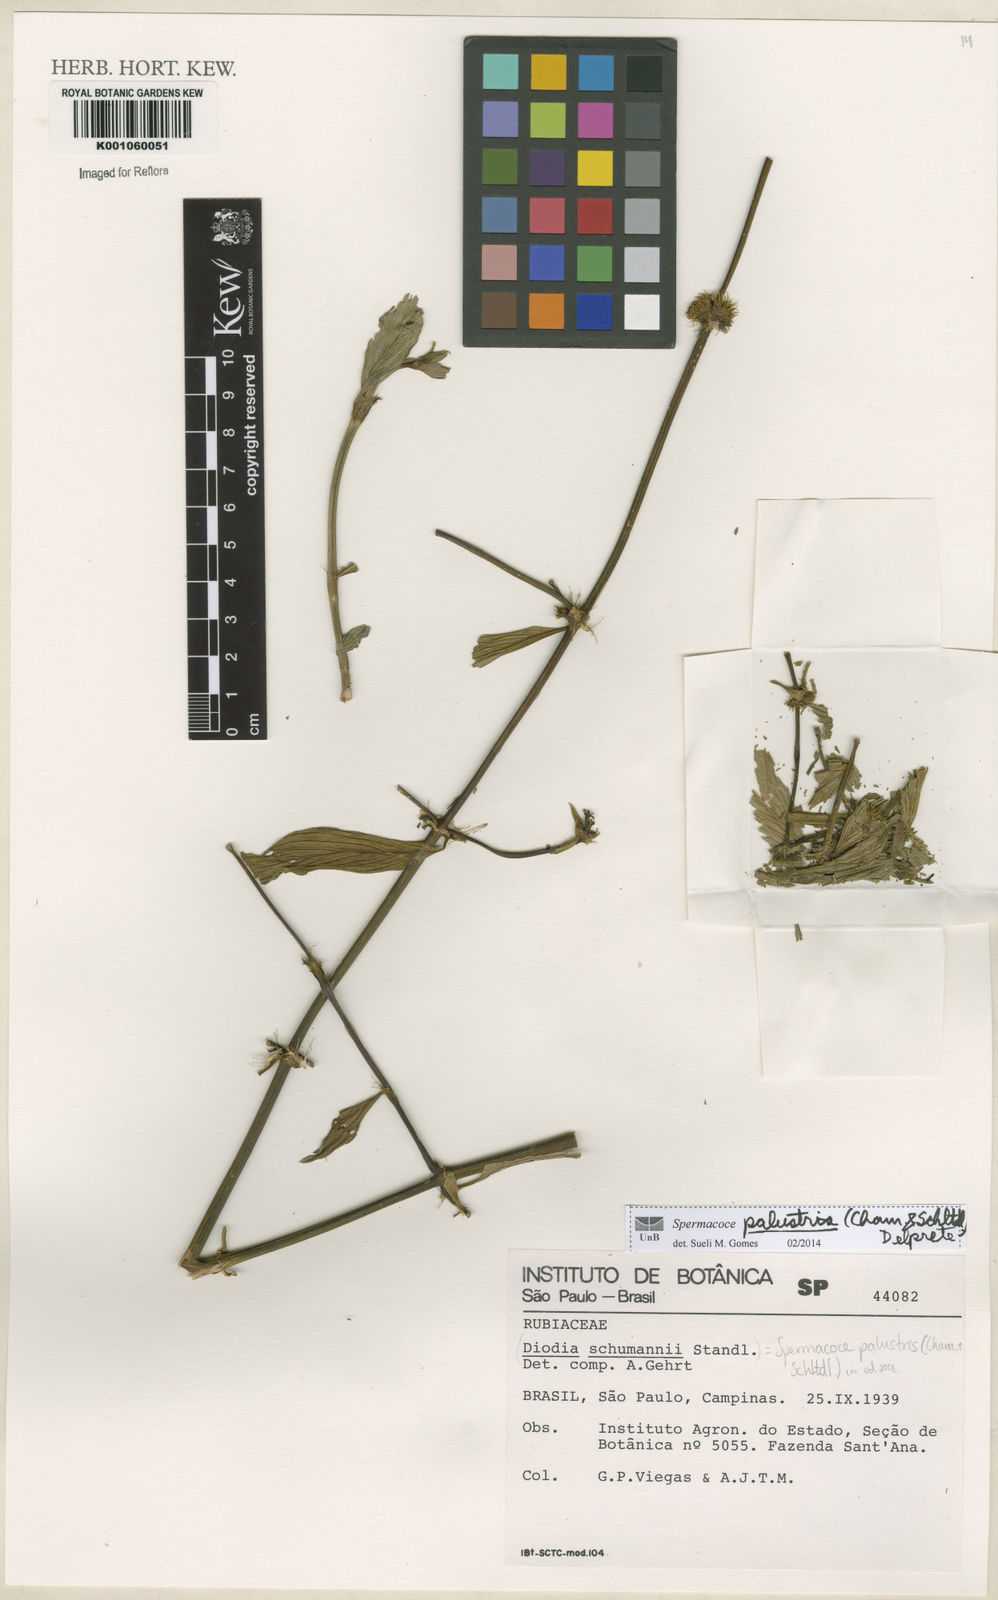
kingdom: Plantae
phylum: Tracheophyta
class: Magnoliopsida
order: Gentianales
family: Rubiaceae
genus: Galianthe
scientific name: Galianthe palustris
